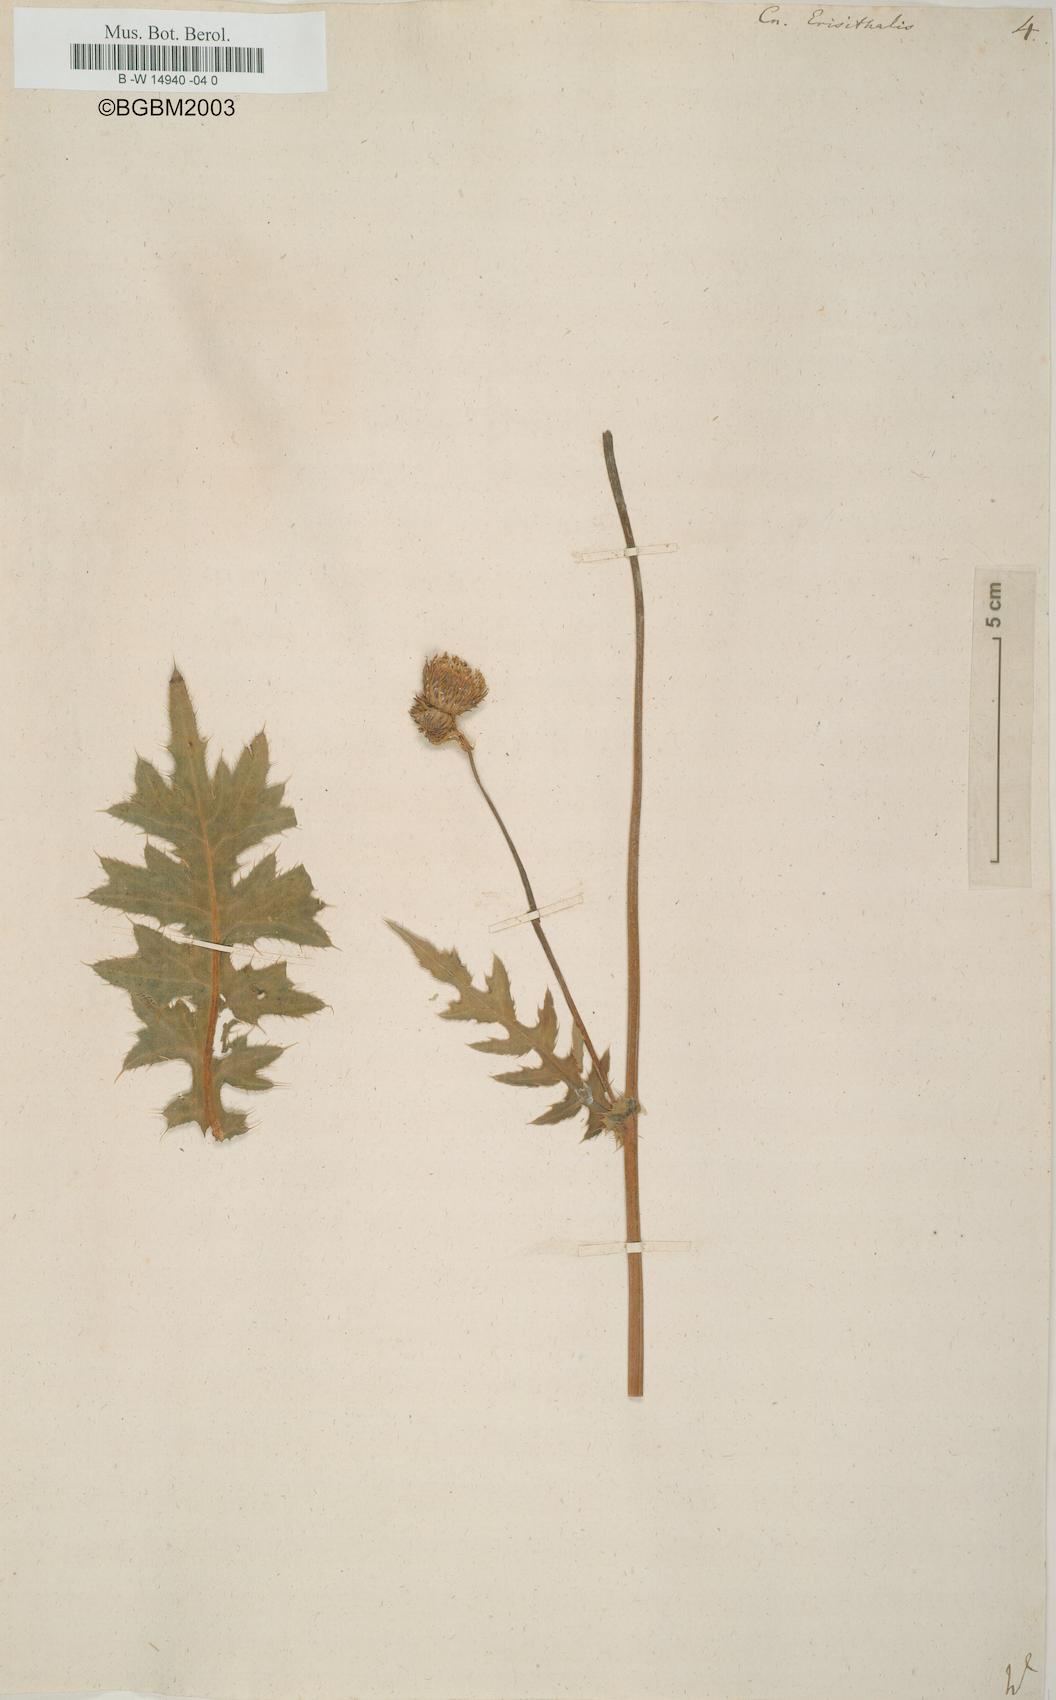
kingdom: Plantae
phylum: Tracheophyta
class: Magnoliopsida
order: Asterales
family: Asteraceae
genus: Cirsium
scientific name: Cirsium erisithales
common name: Yellow thistle
